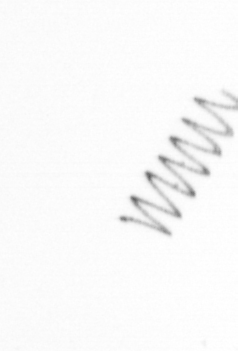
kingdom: Chromista
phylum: Ochrophyta
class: Bacillariophyceae
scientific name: Bacillariophyceae
